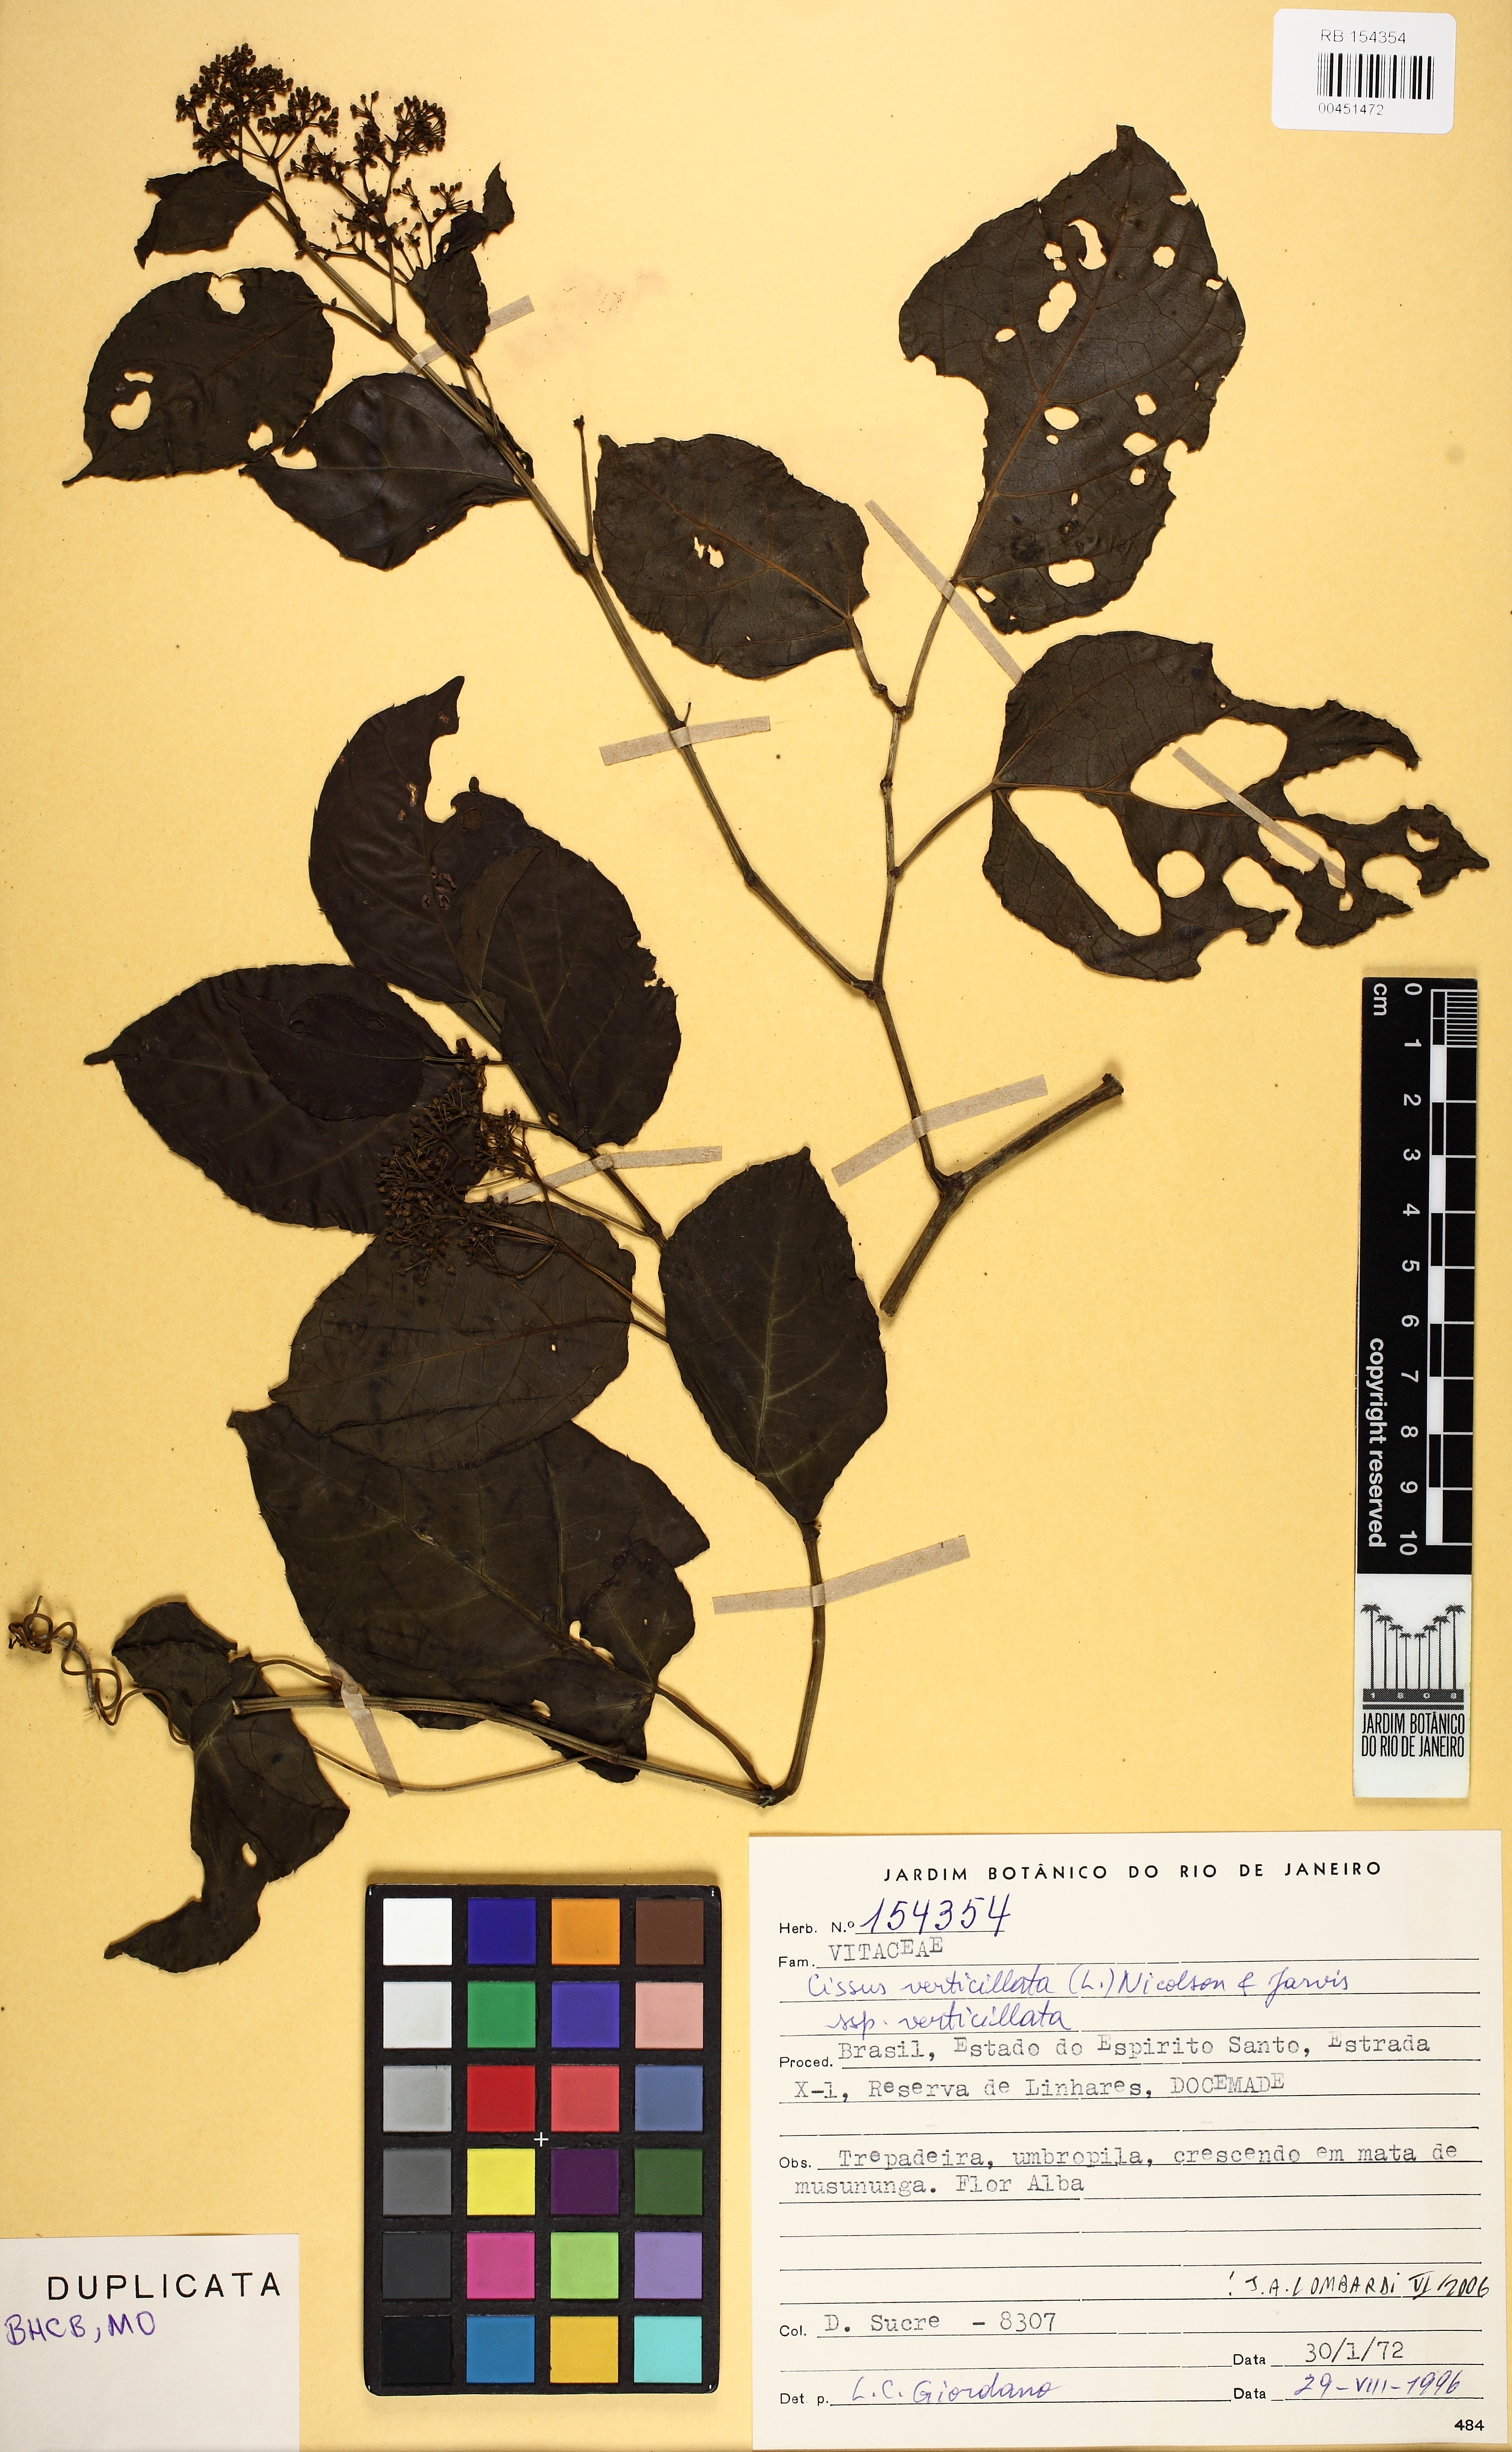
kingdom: Plantae
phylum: Tracheophyta
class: Magnoliopsida
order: Vitales
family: Vitaceae
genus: Cissus
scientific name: Cissus verticillata
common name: Princess vine
